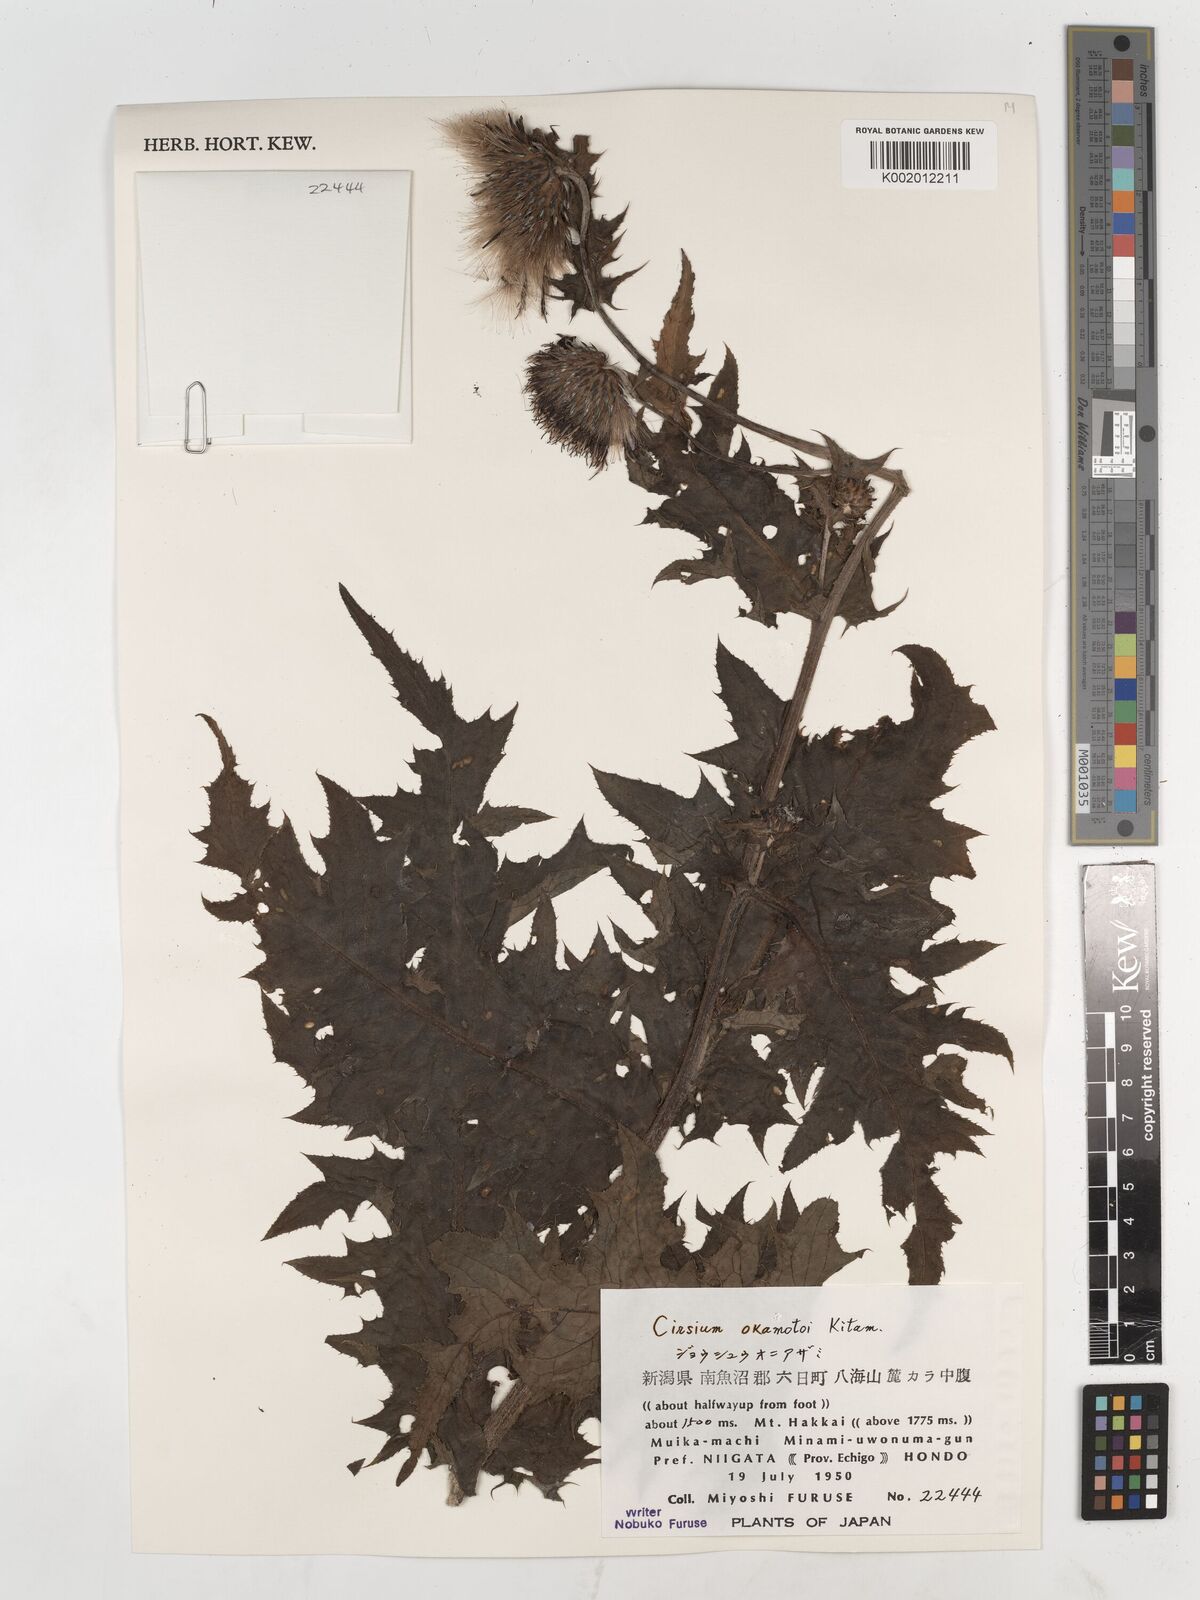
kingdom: Plantae
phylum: Tracheophyta
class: Magnoliopsida
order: Asterales
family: Asteraceae
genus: Cirsium
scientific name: Cirsium okamotoi
